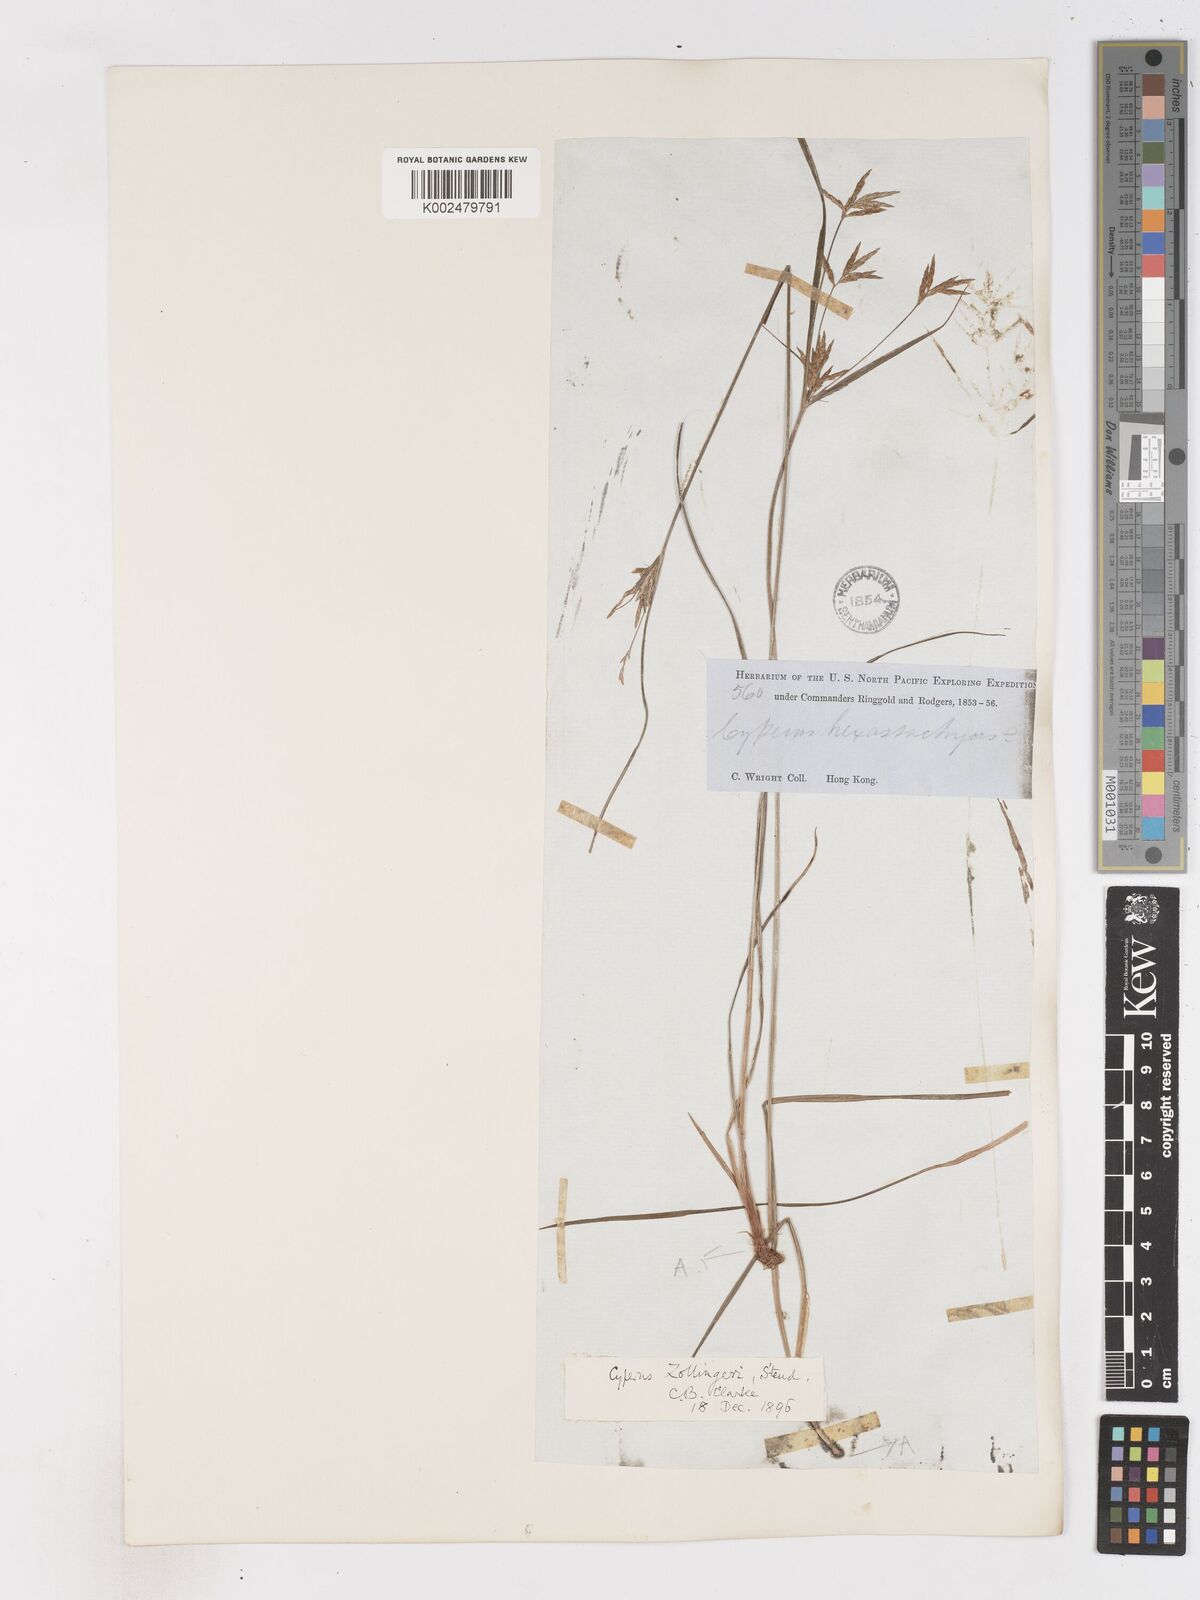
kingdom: Plantae
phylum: Tracheophyta
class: Liliopsida
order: Poales
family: Cyperaceae
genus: Cyperus
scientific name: Cyperus tenuiculmis
